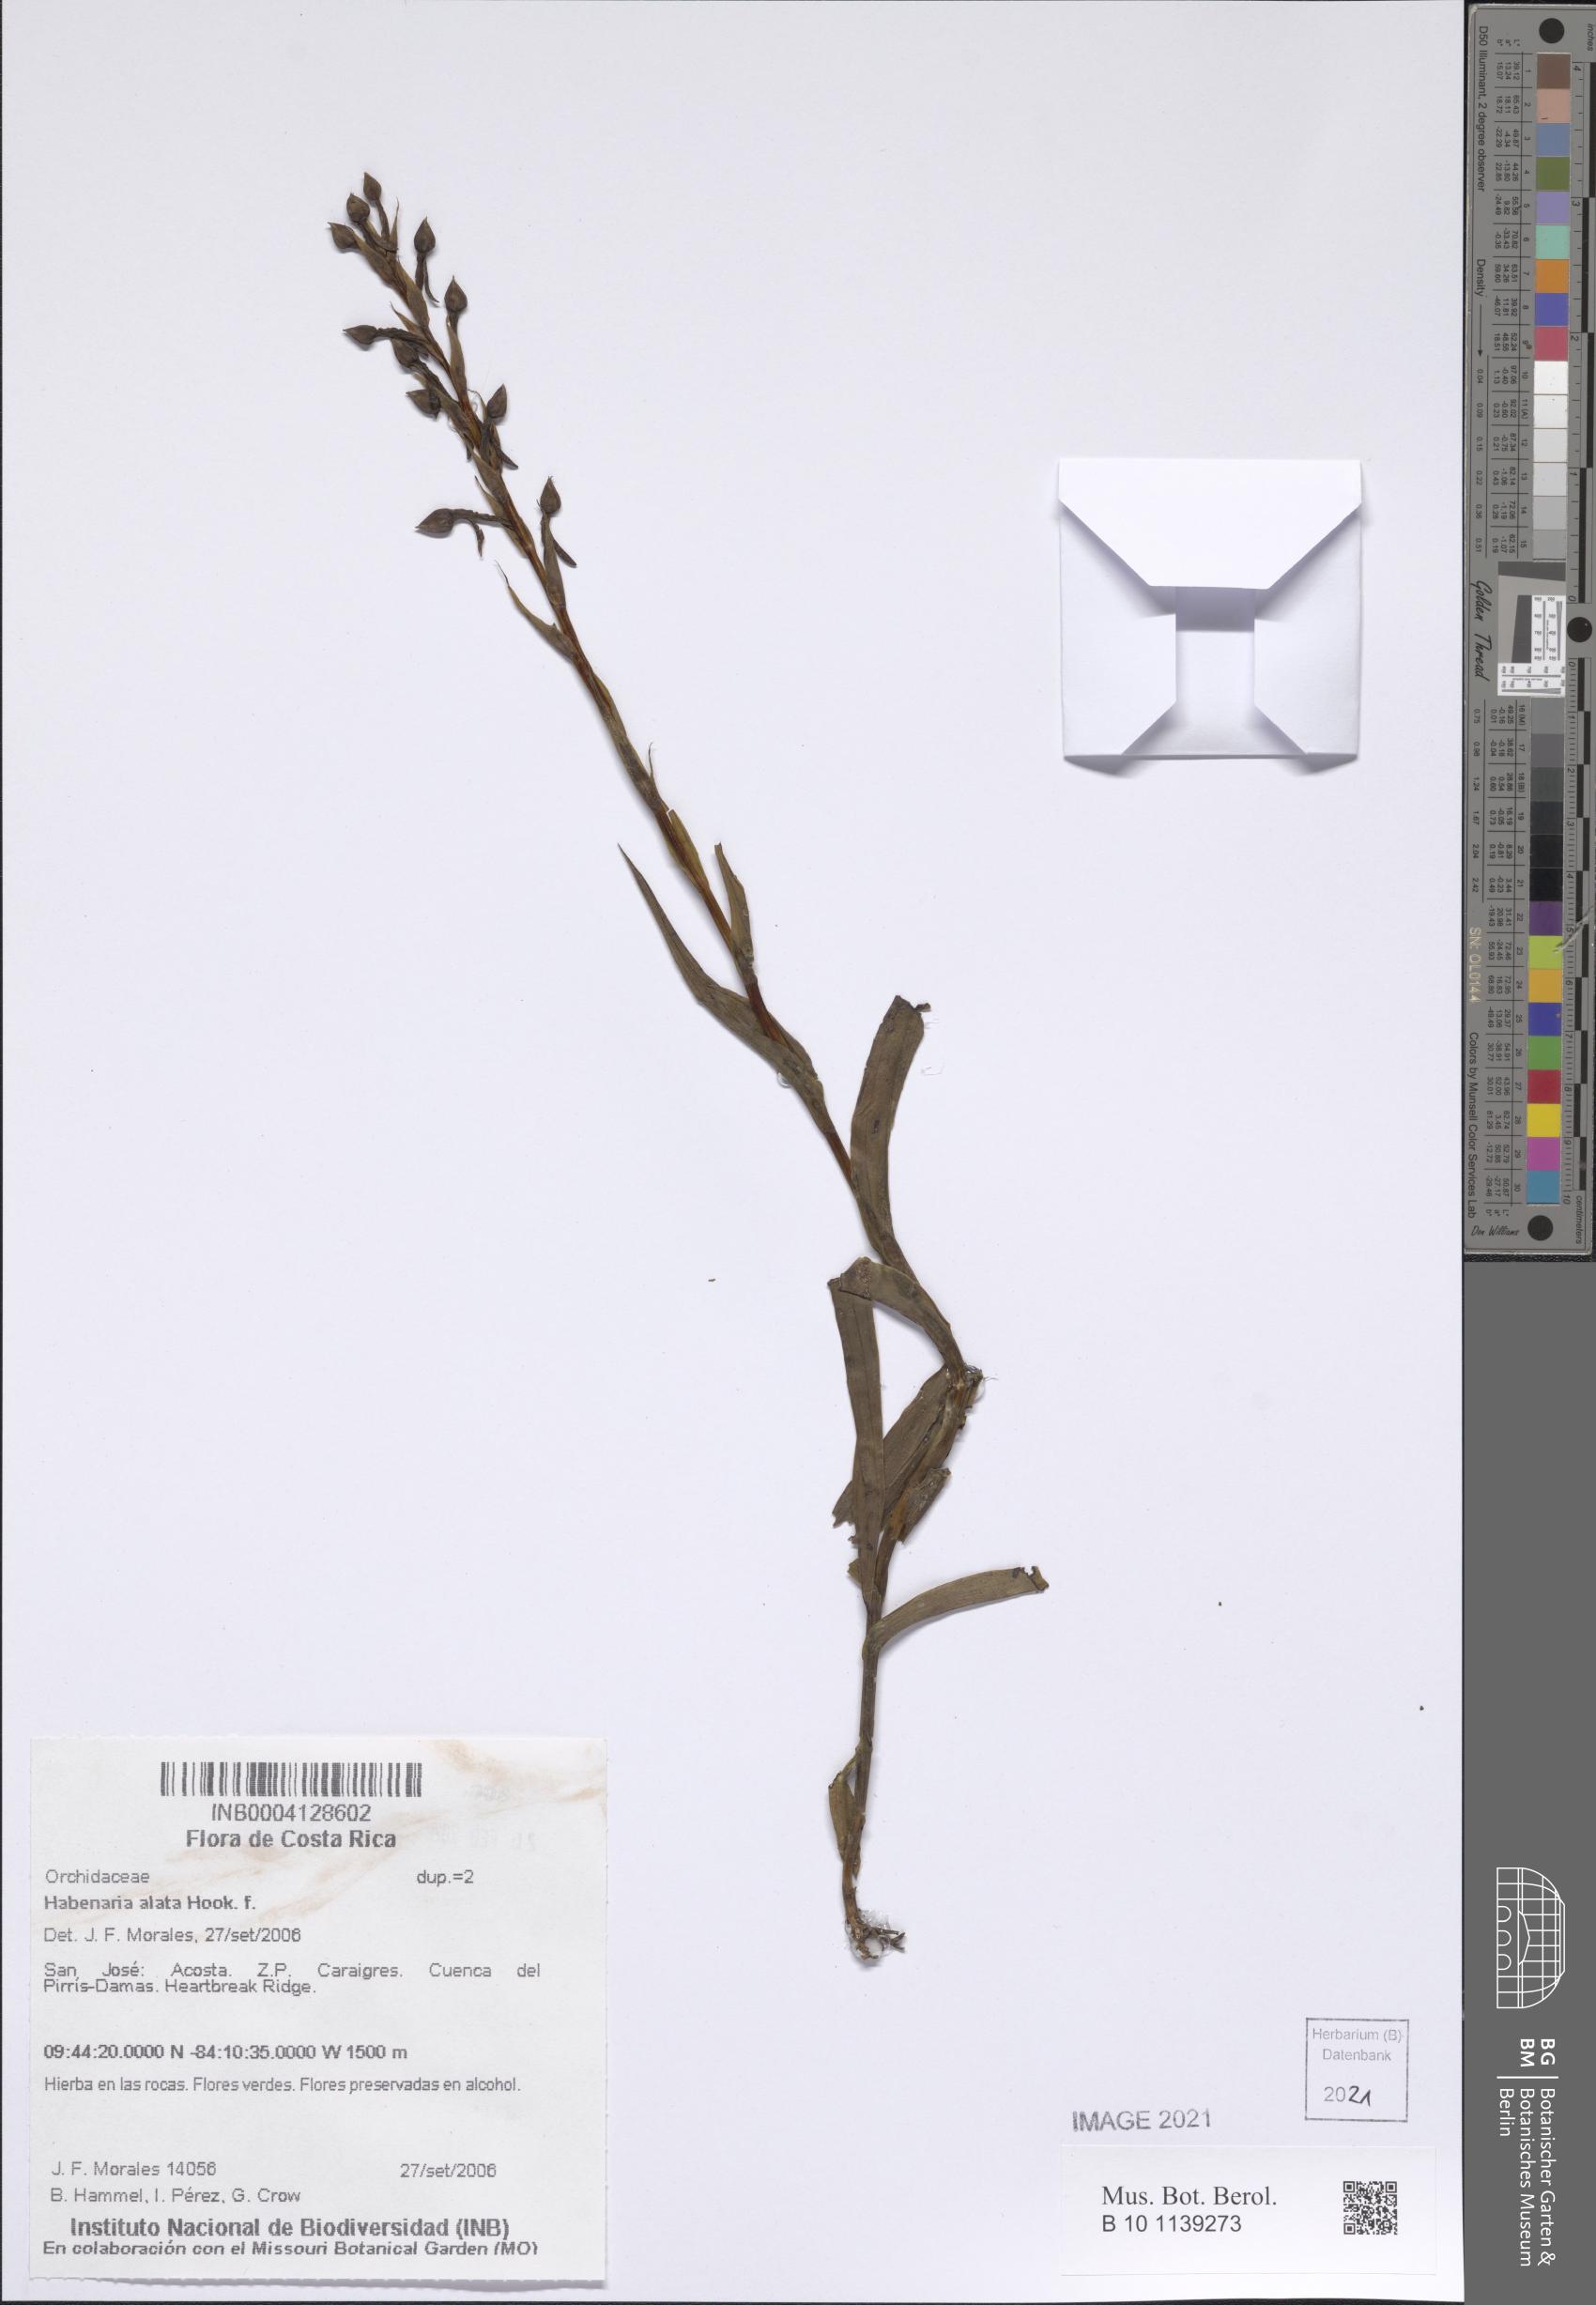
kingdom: Plantae
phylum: Tracheophyta
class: Liliopsida
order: Asparagales
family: Orchidaceae
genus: Habenaria
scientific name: Habenaria alata
